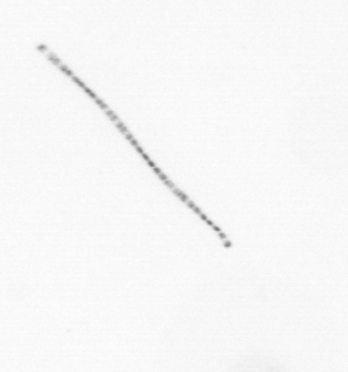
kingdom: Chromista
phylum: Ochrophyta
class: Bacillariophyceae
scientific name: Bacillariophyceae
